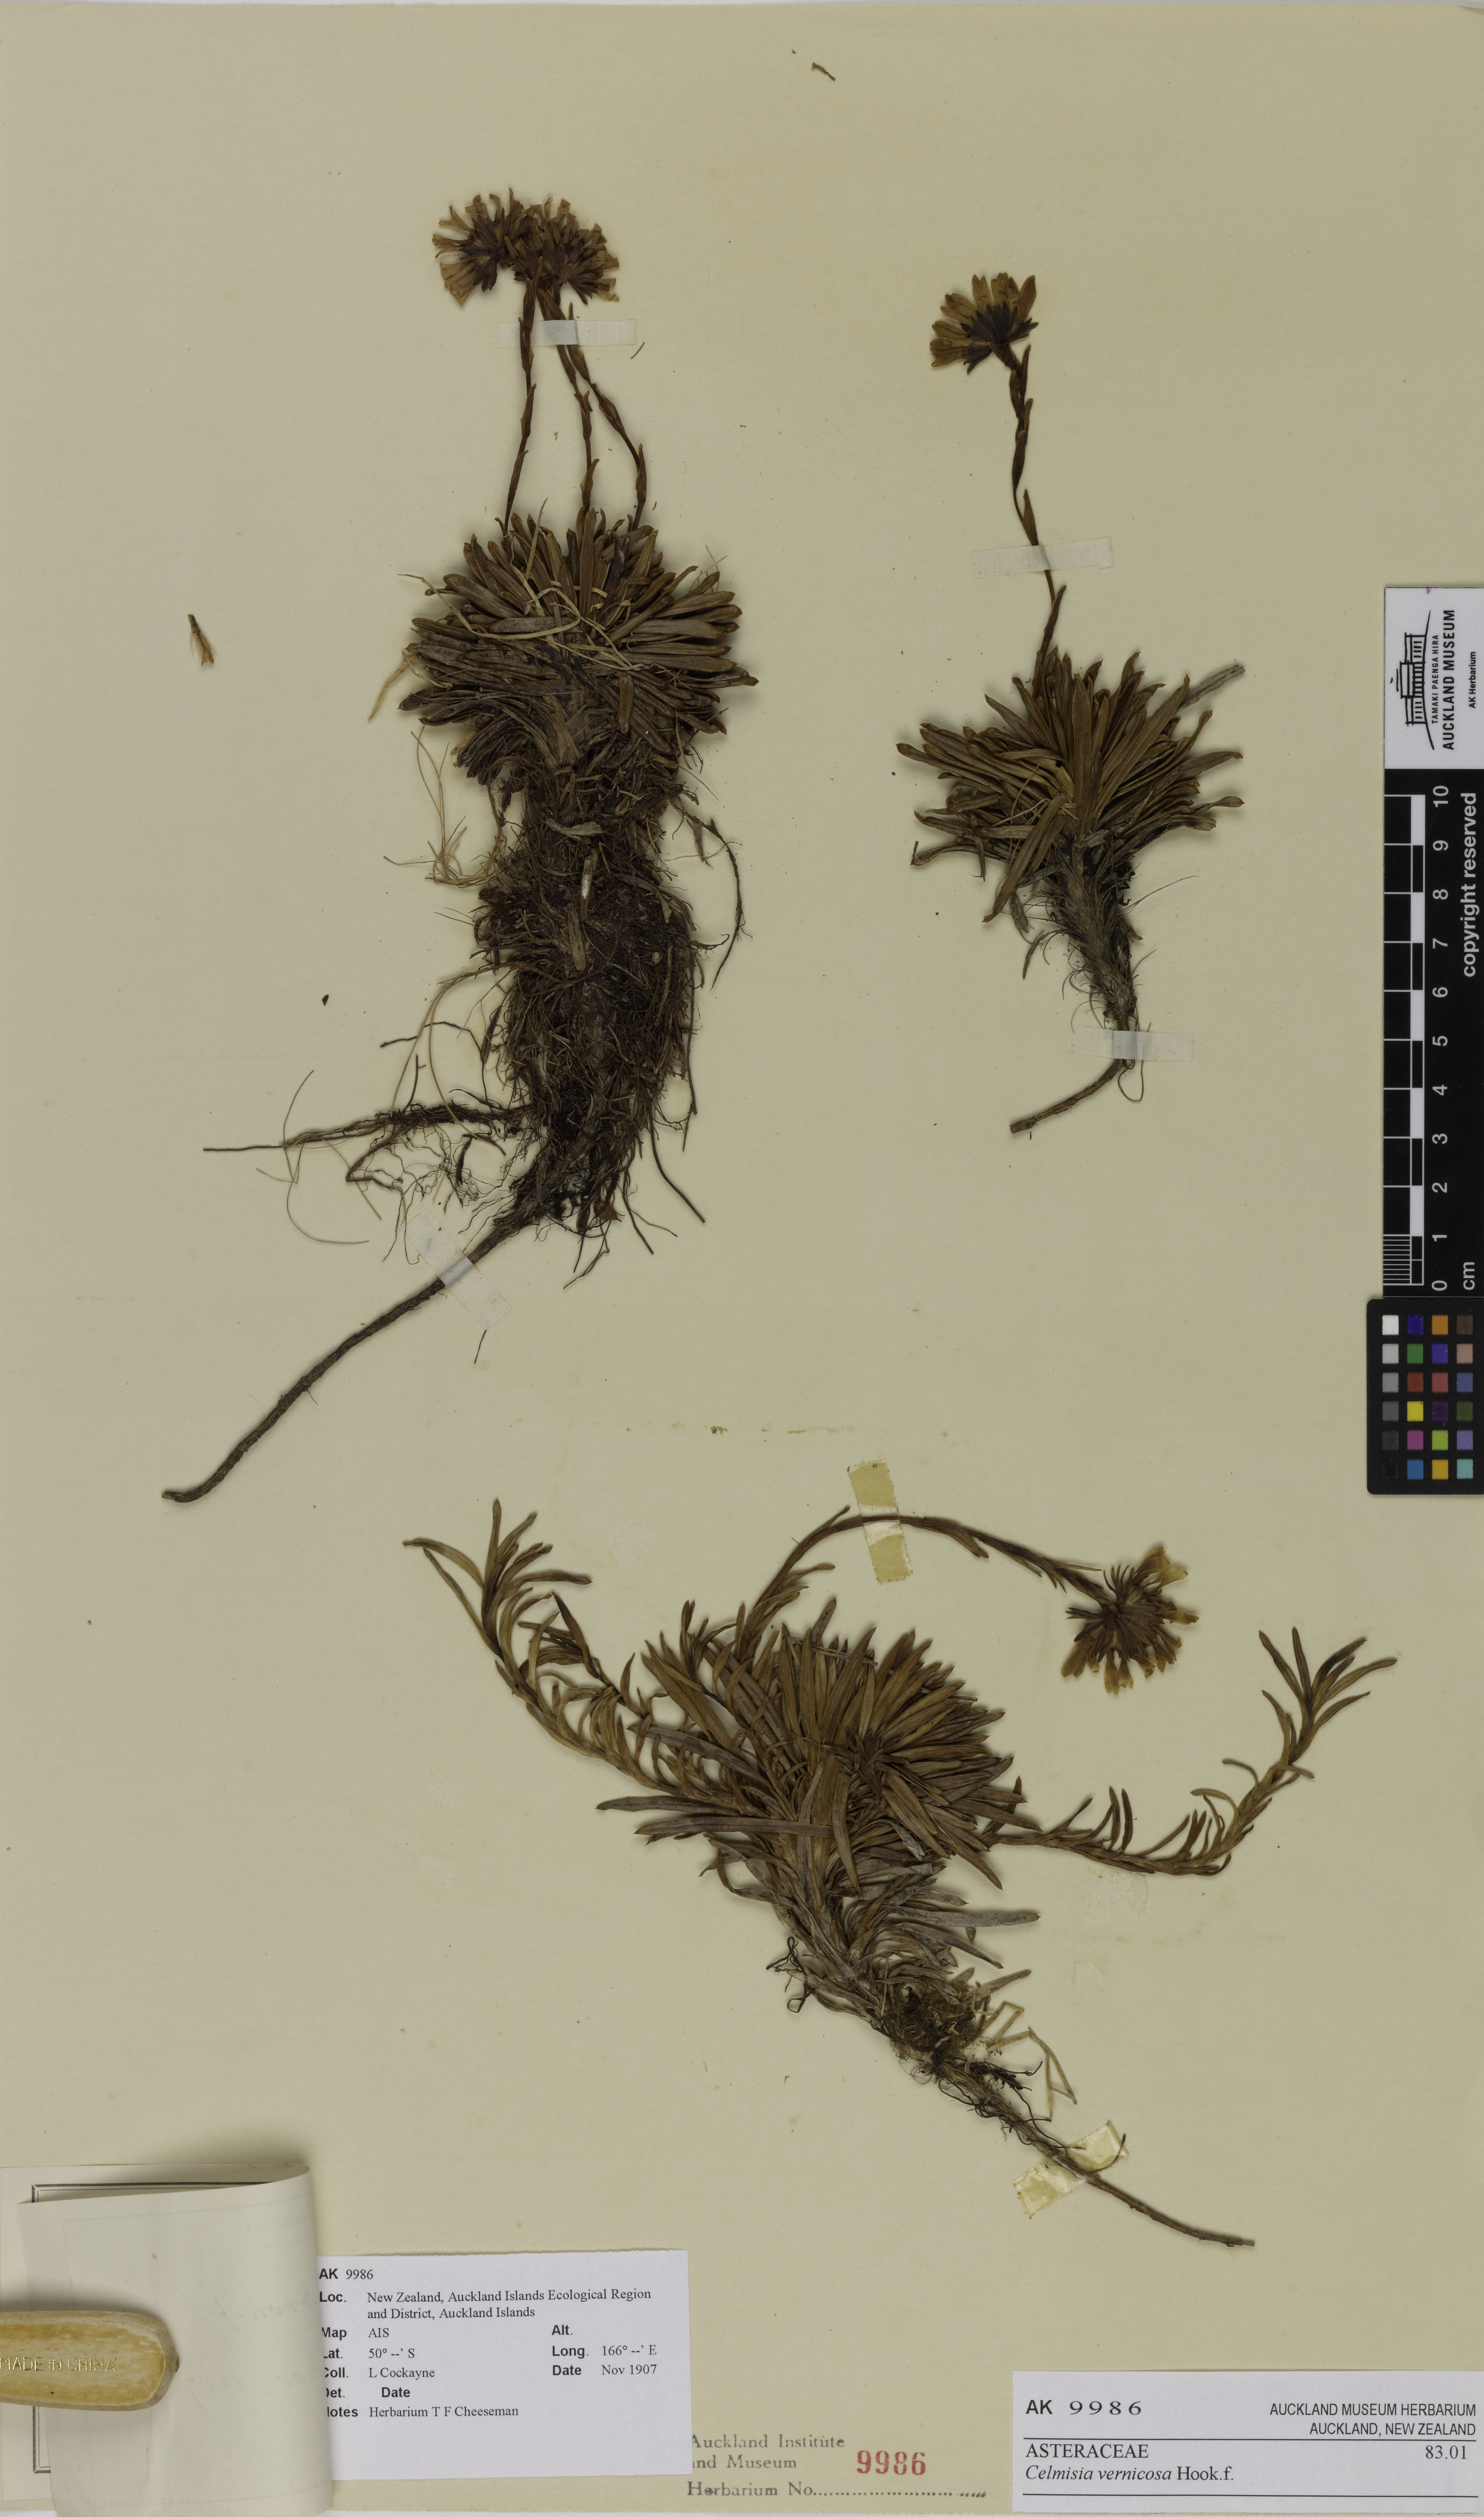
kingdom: Plantae
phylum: Tracheophyta
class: Magnoliopsida
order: Asterales
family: Asteraceae
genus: Damnamenia
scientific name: Damnamenia vernicosa
